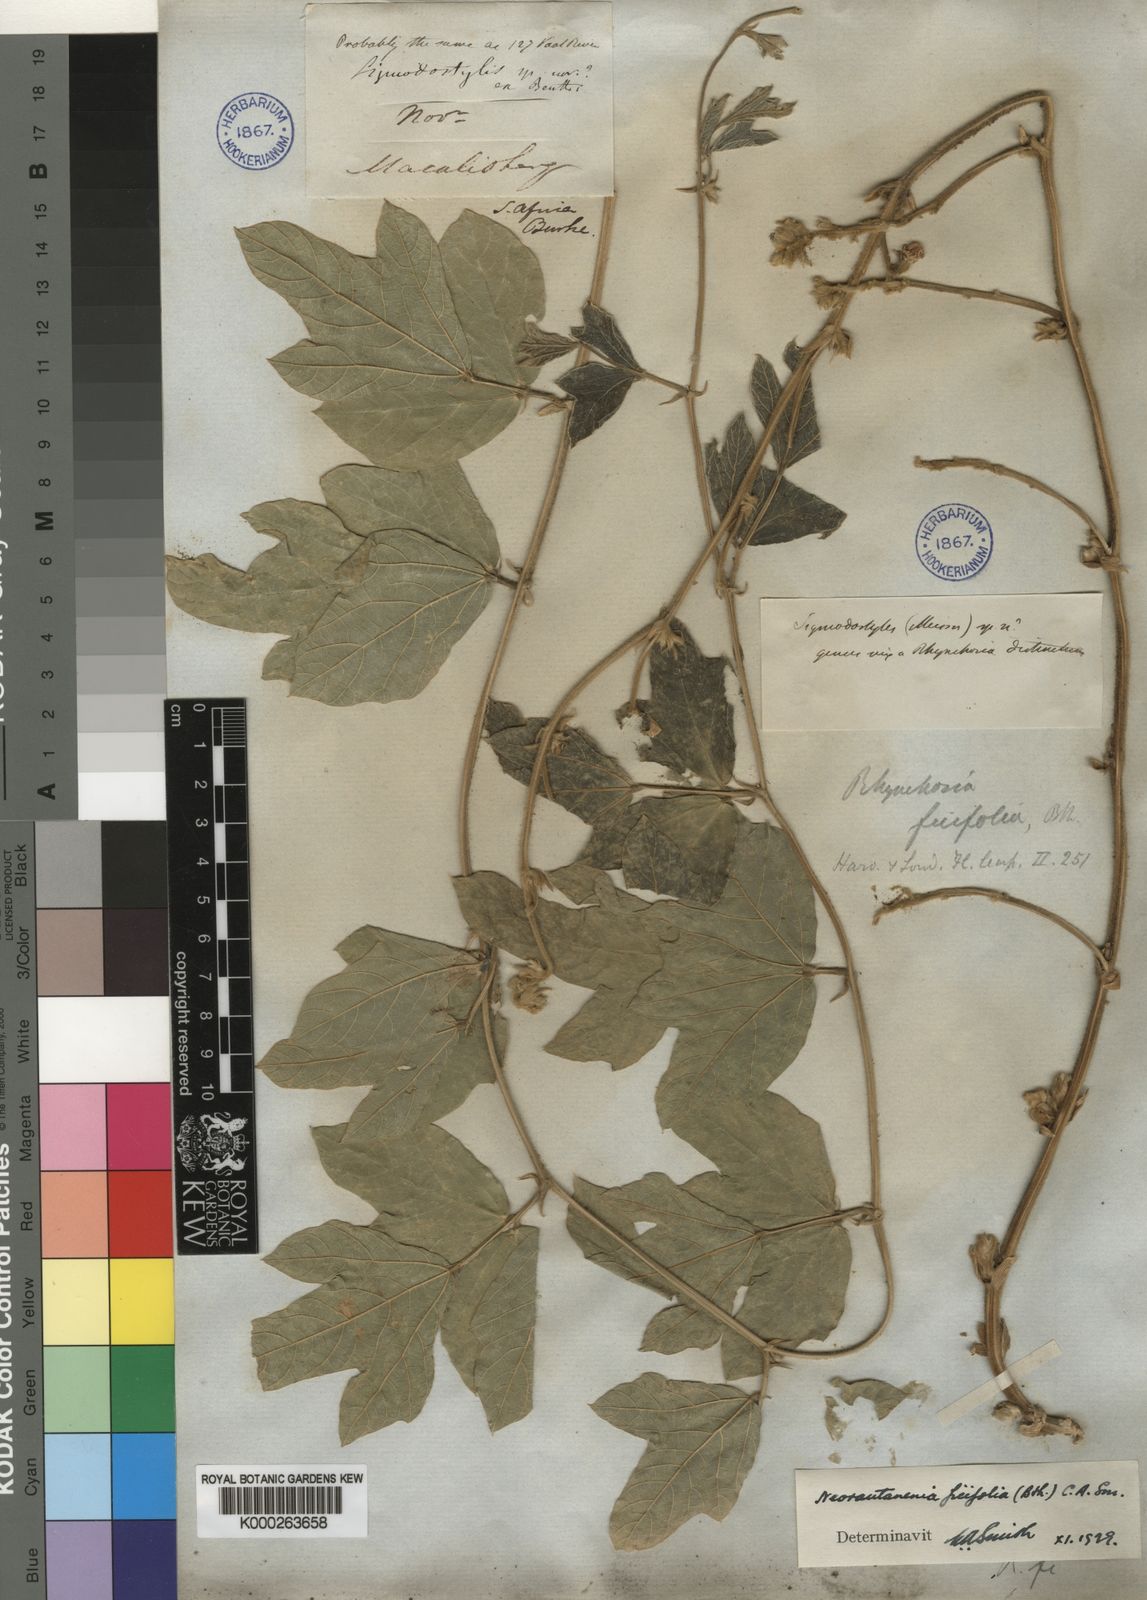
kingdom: Plantae
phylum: Tracheophyta
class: Magnoliopsida
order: Fabales
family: Fabaceae
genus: Neorautanenia
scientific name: Neorautanenia ficifolia
